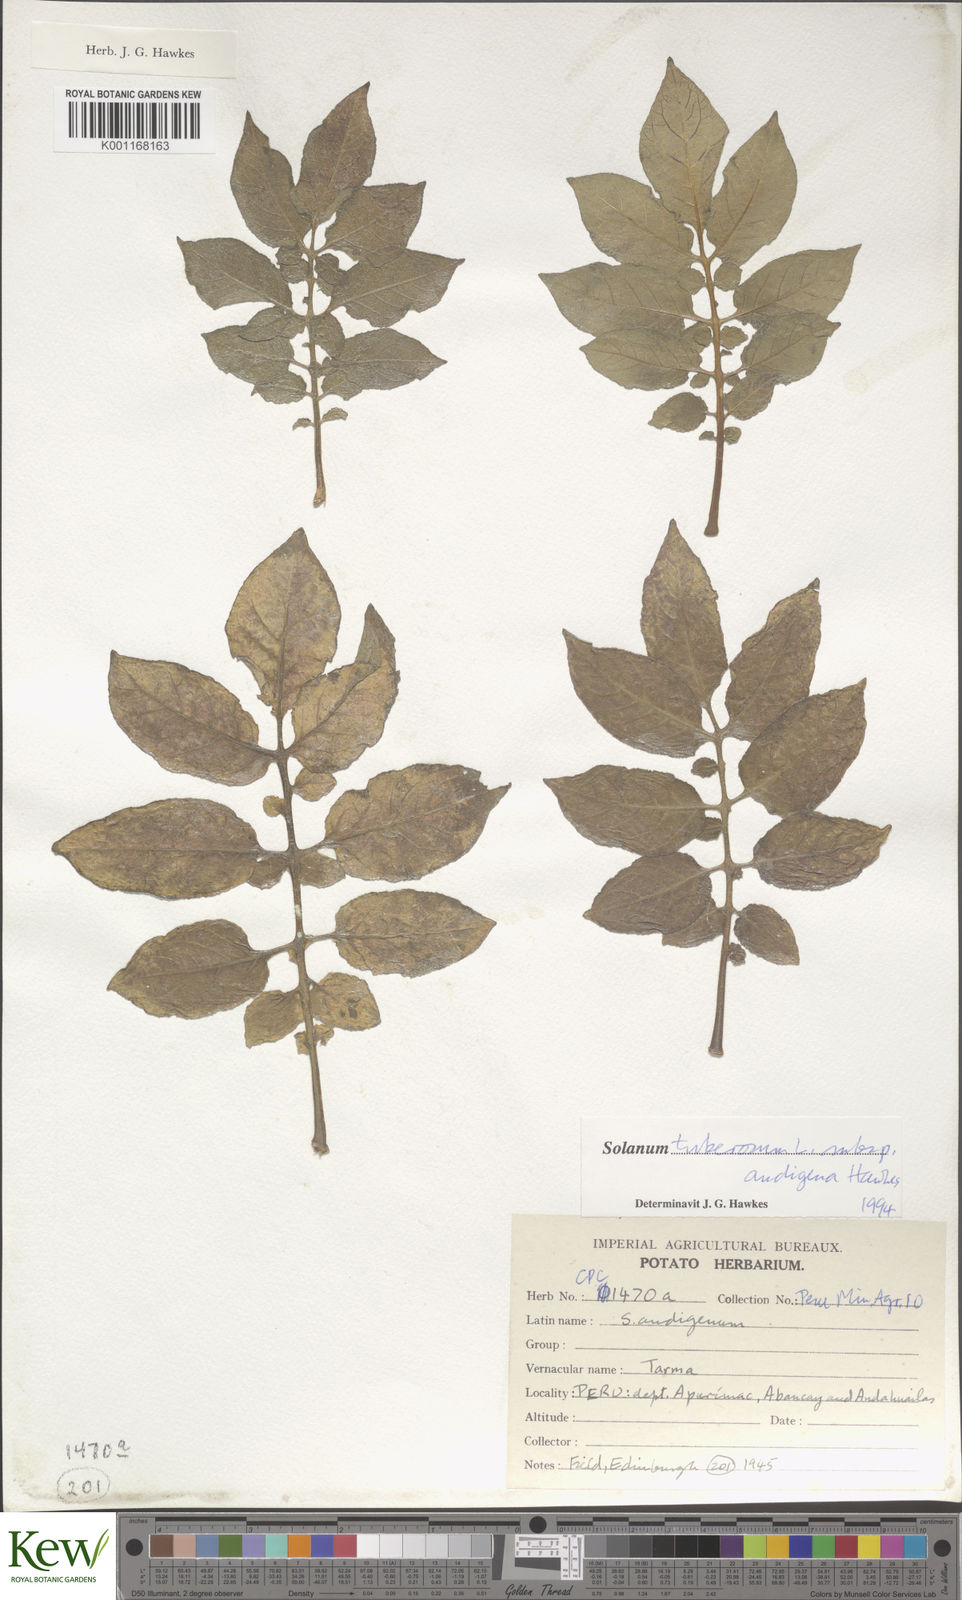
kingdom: Plantae
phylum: Tracheophyta
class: Magnoliopsida
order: Solanales
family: Solanaceae
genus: Solanum
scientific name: Solanum tuberosum
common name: Potato
